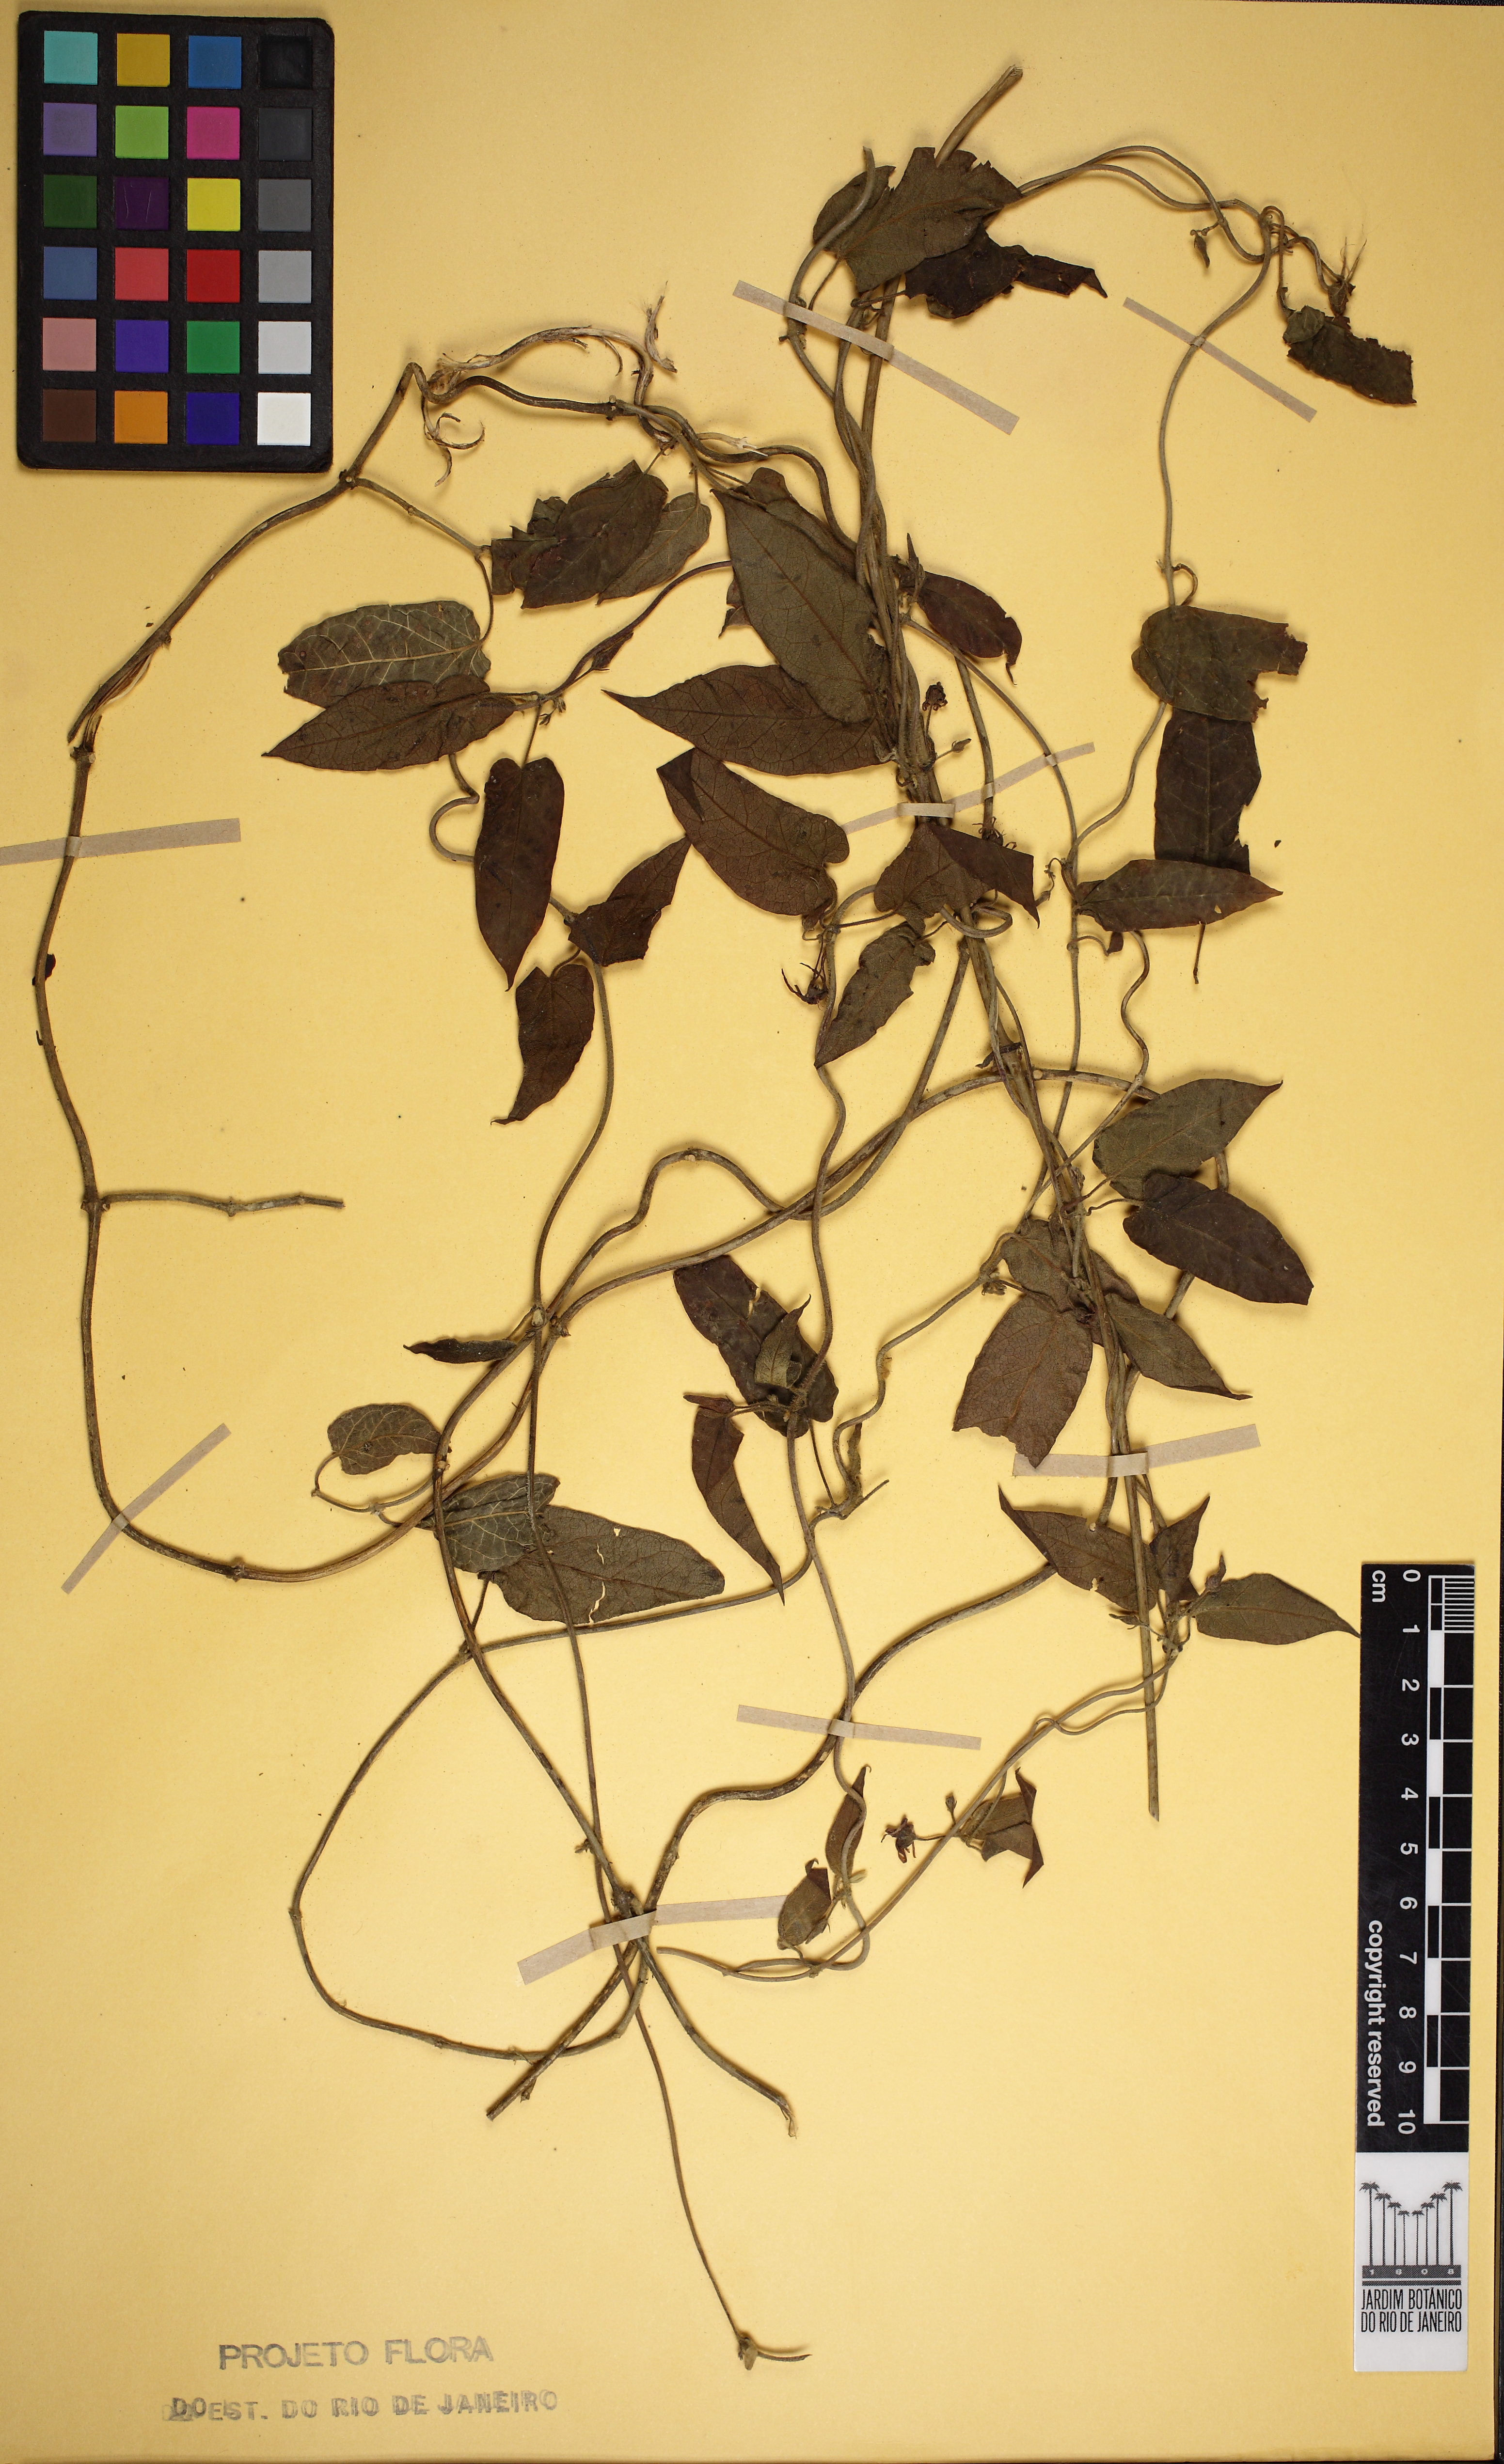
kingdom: Plantae
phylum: Tracheophyta
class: Magnoliopsida
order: Gentianales
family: Apocynaceae
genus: Oxypetalum
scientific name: Oxypetalum wightianum
